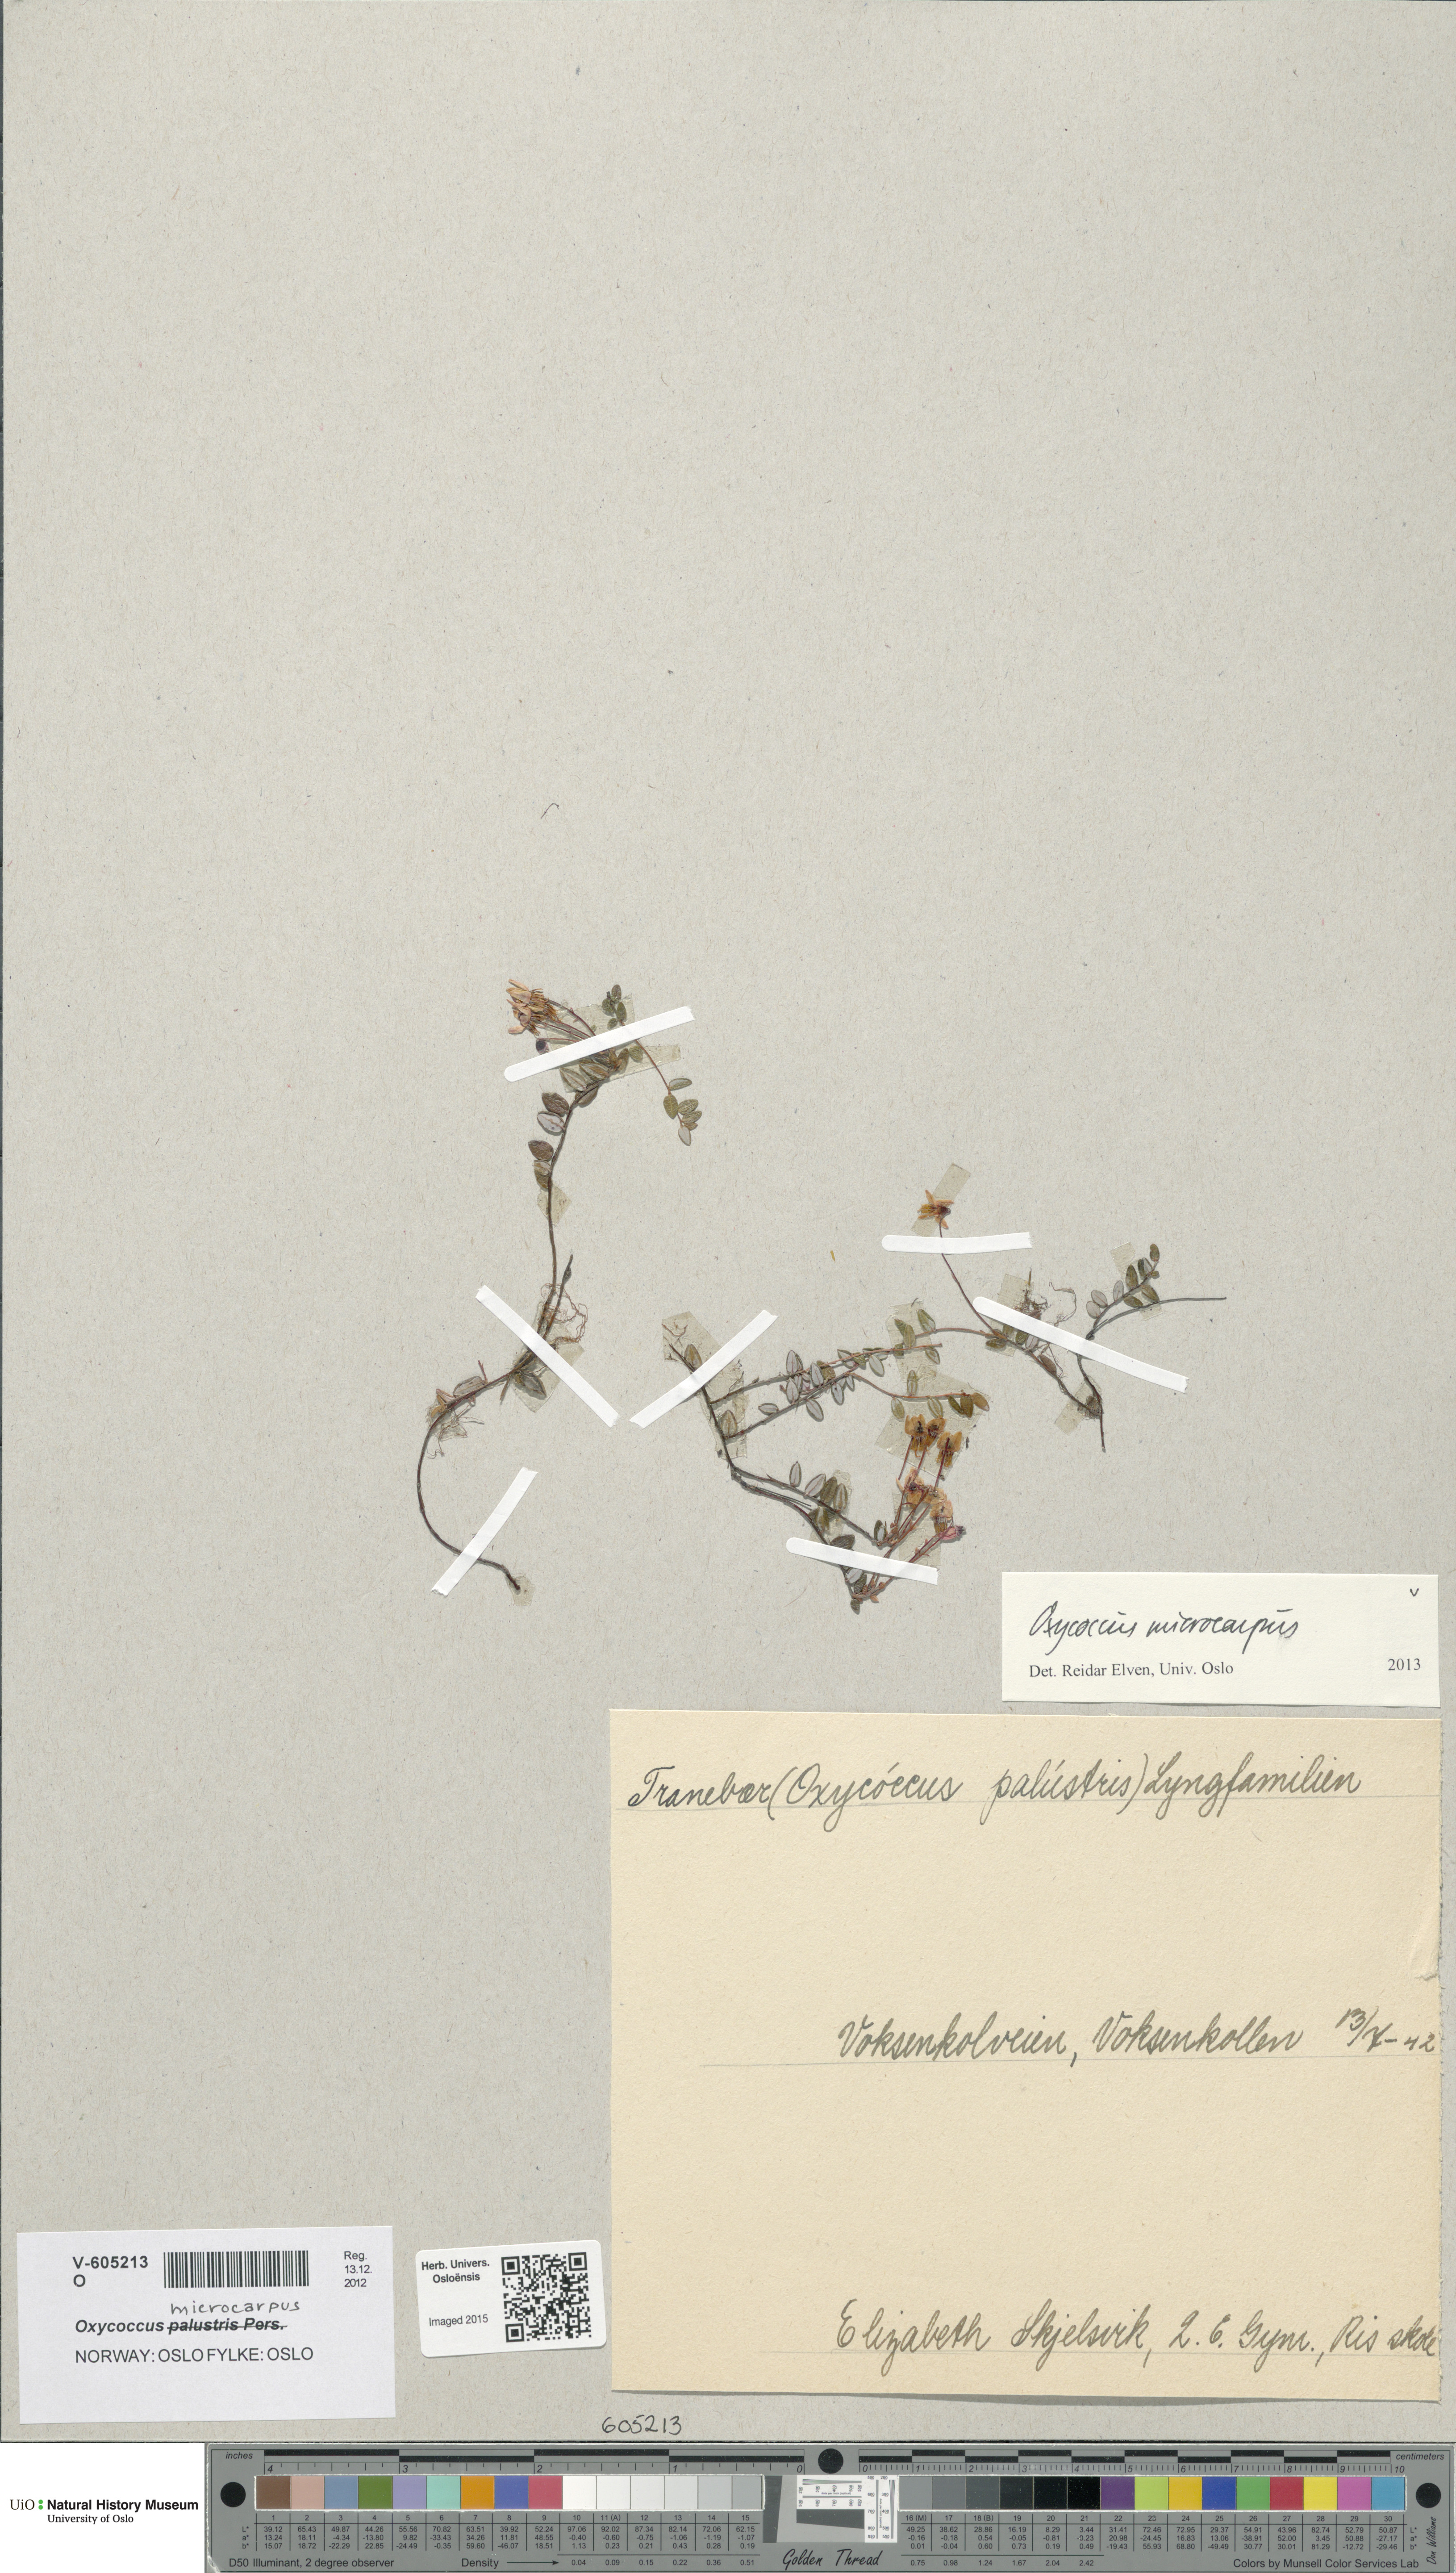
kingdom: Plantae
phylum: Tracheophyta
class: Magnoliopsida
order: Ericales
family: Ericaceae
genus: Vaccinium
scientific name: Vaccinium microcarpum
